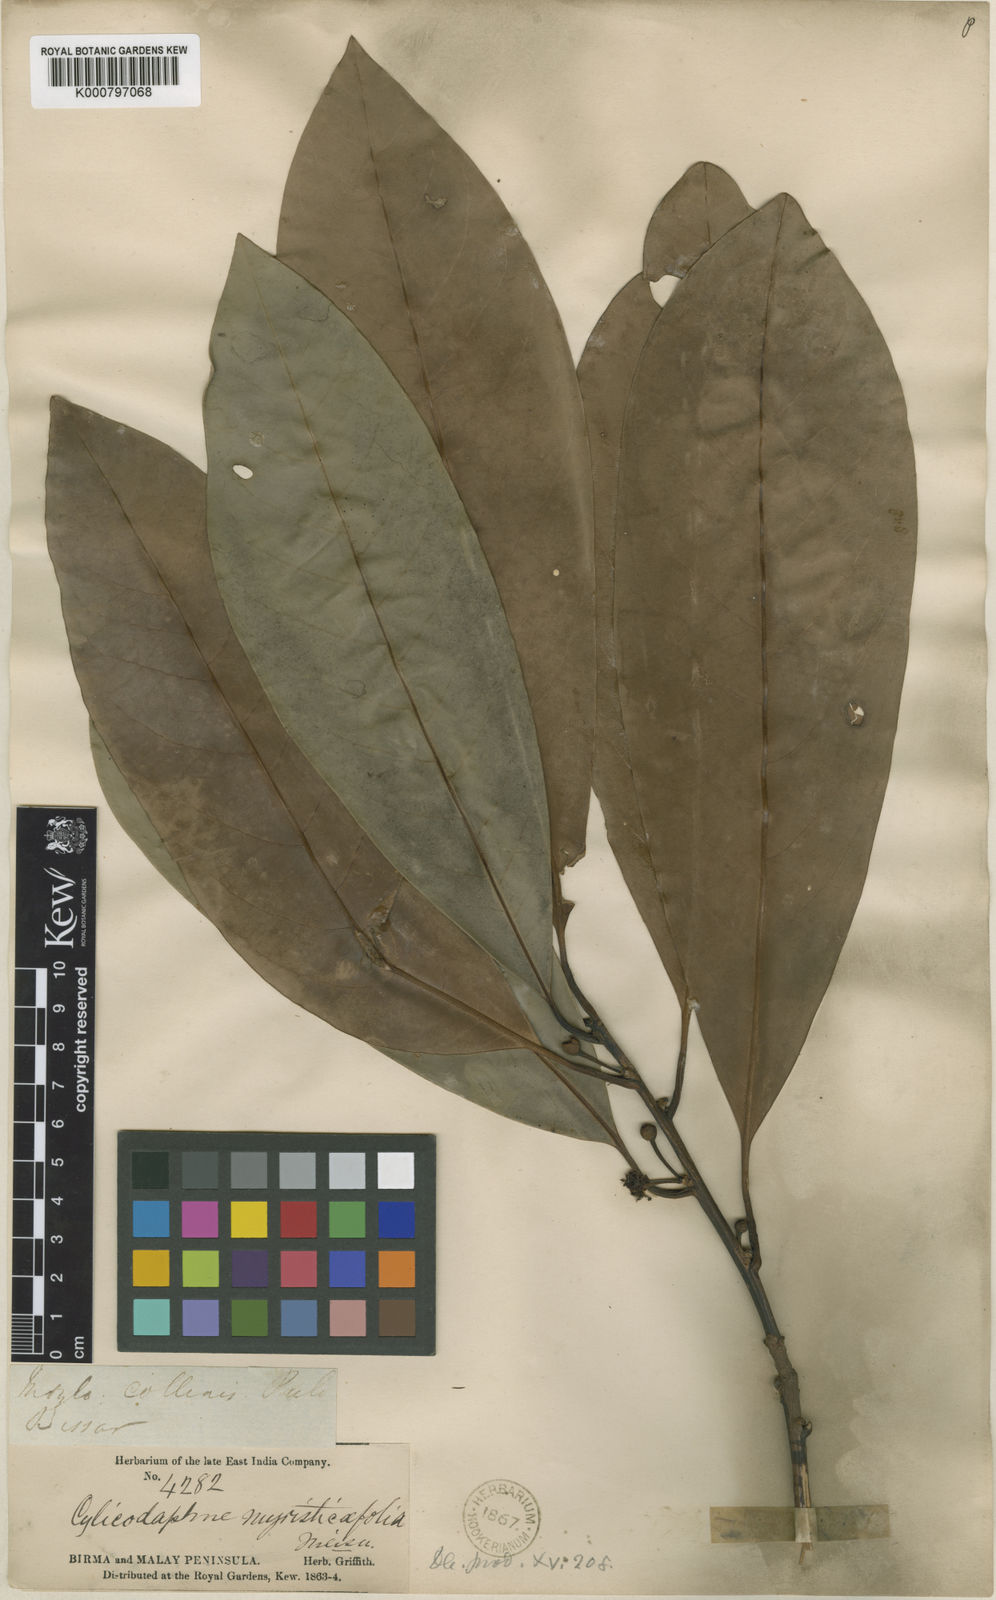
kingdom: Plantae
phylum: Tracheophyta
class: Magnoliopsida
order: Laurales
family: Lauraceae
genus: Litsea
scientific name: Litsea myristicifolia
